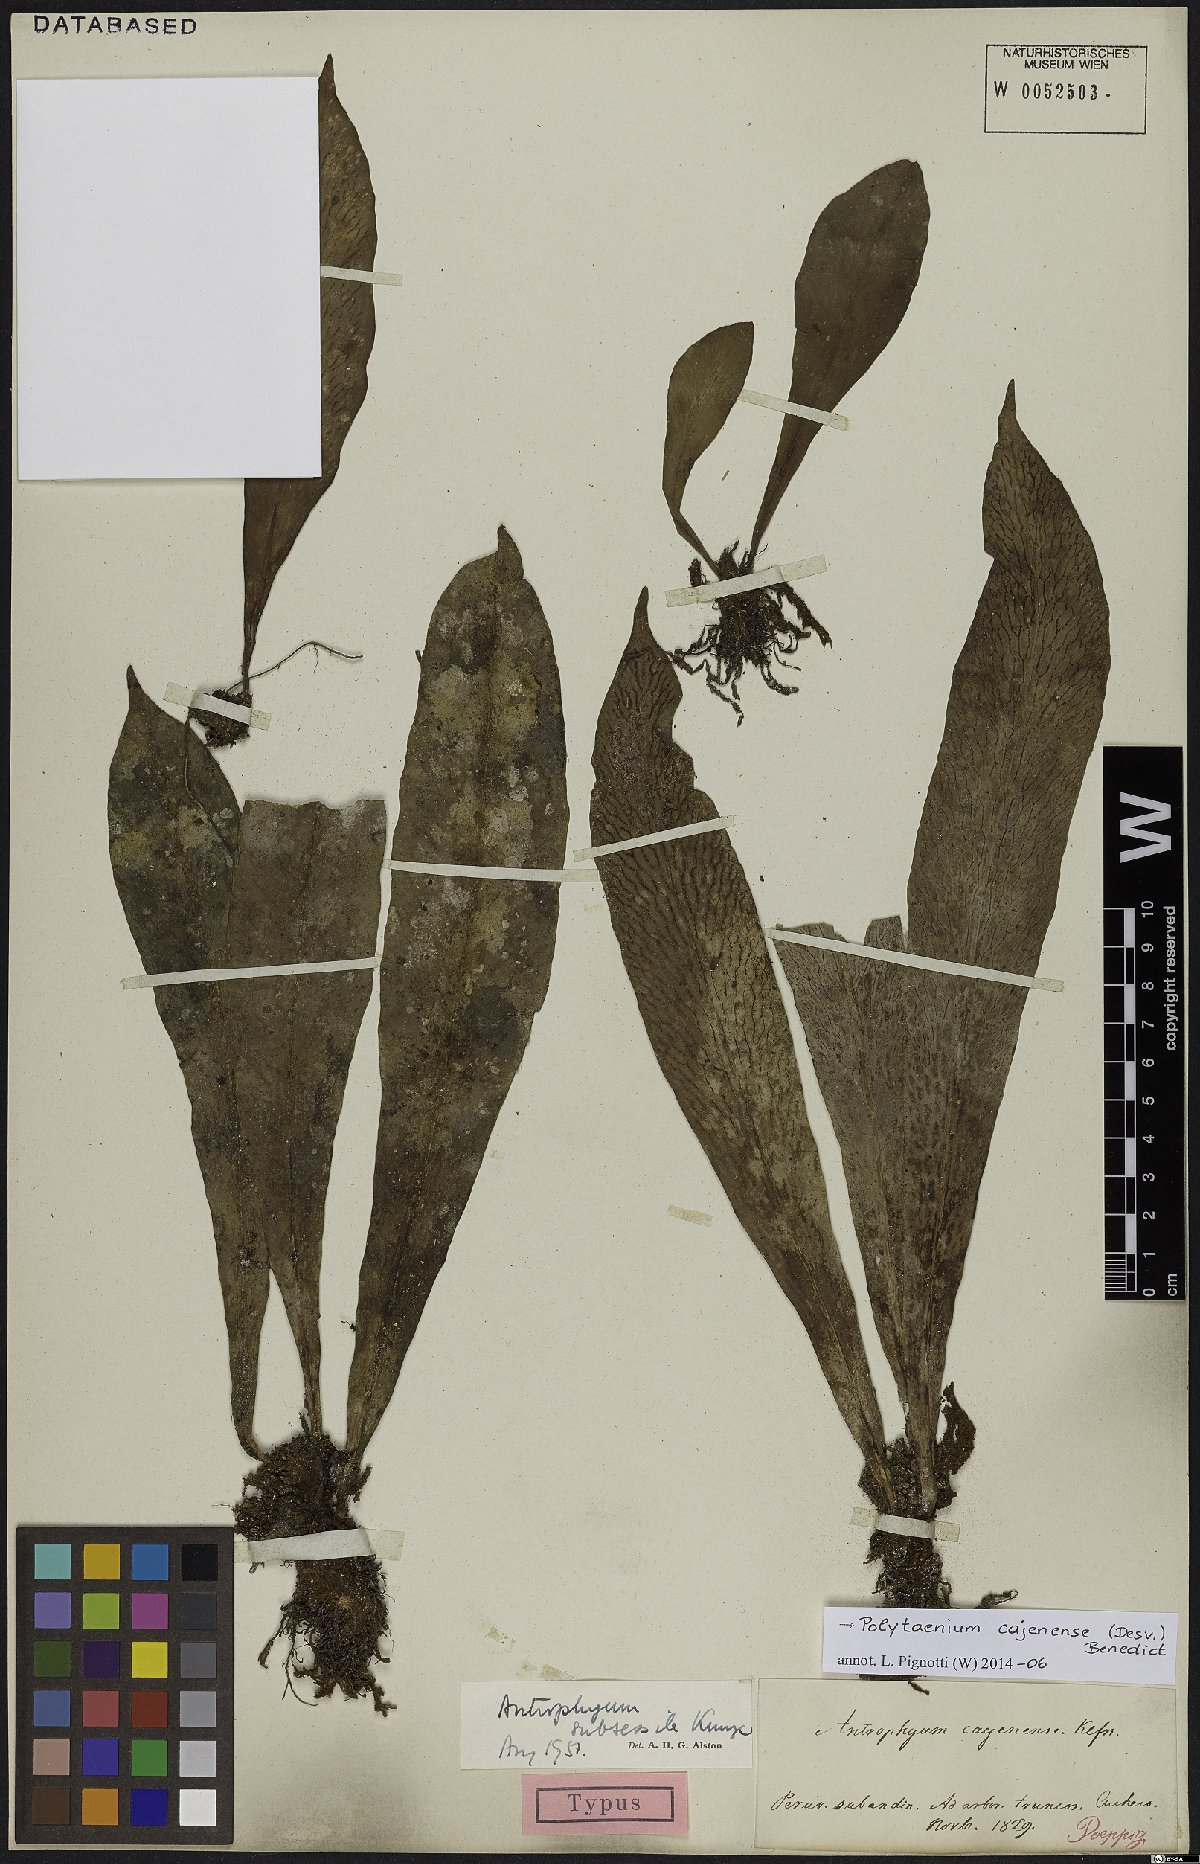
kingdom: Plantae
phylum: Tracheophyta
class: Polypodiopsida
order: Polypodiales
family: Pteridaceae
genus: Polytaenium
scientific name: Polytaenium cajenense
